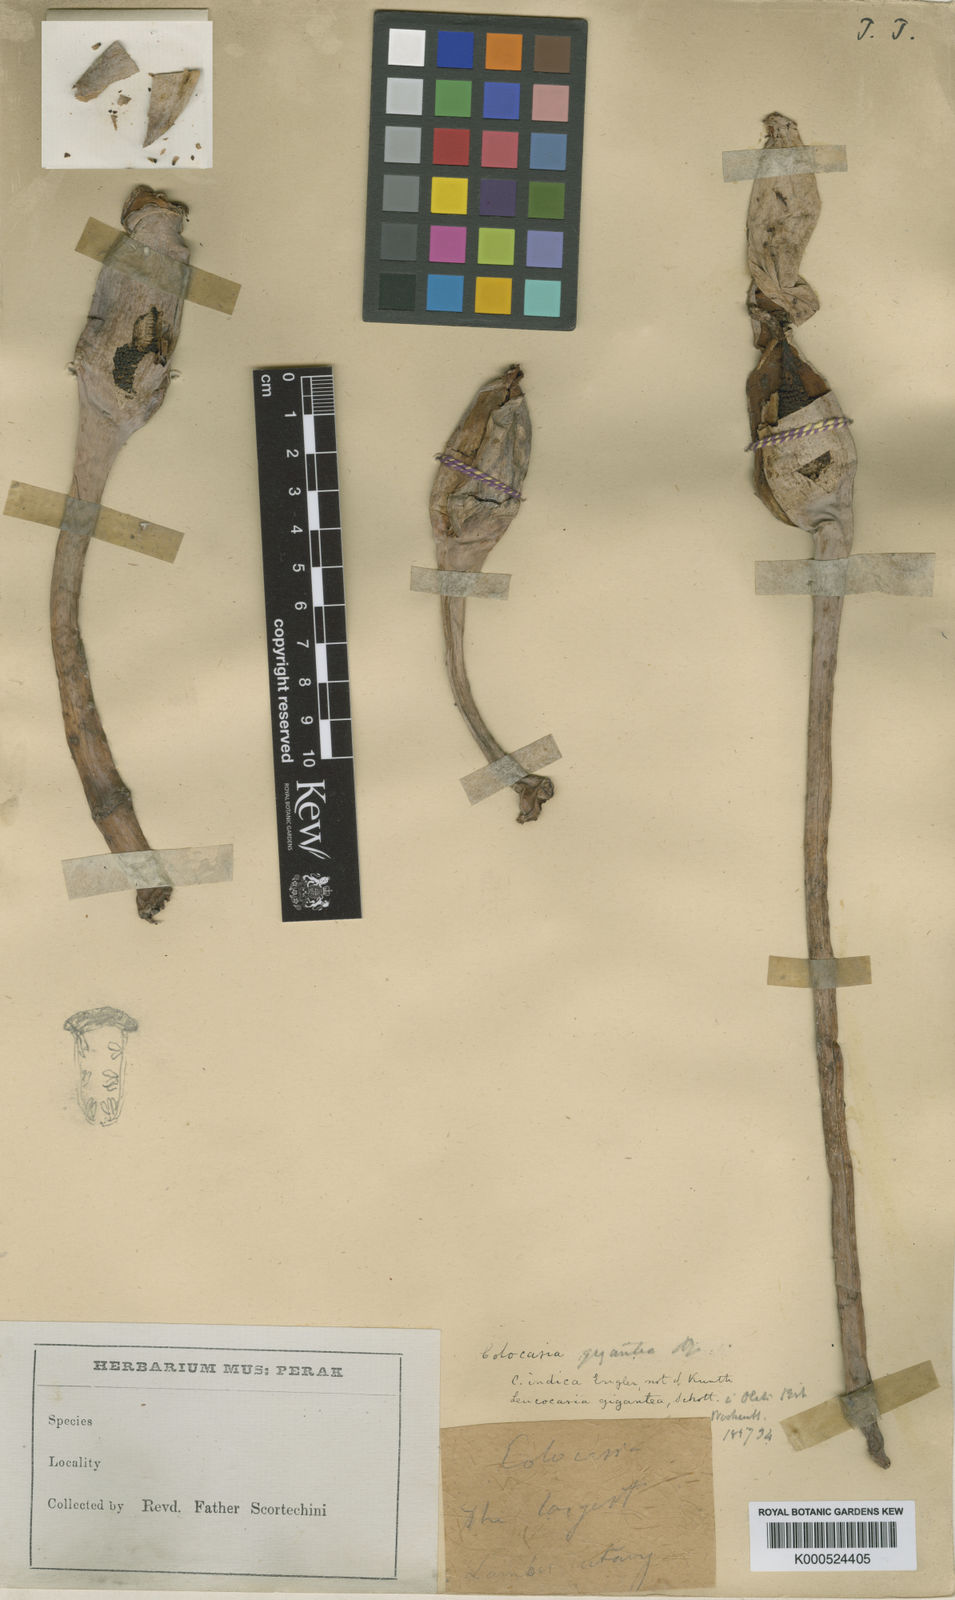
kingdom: Plantae
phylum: Tracheophyta
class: Liliopsida
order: Alismatales
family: Araceae
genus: Leucocasia
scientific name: Leucocasia gigantea
